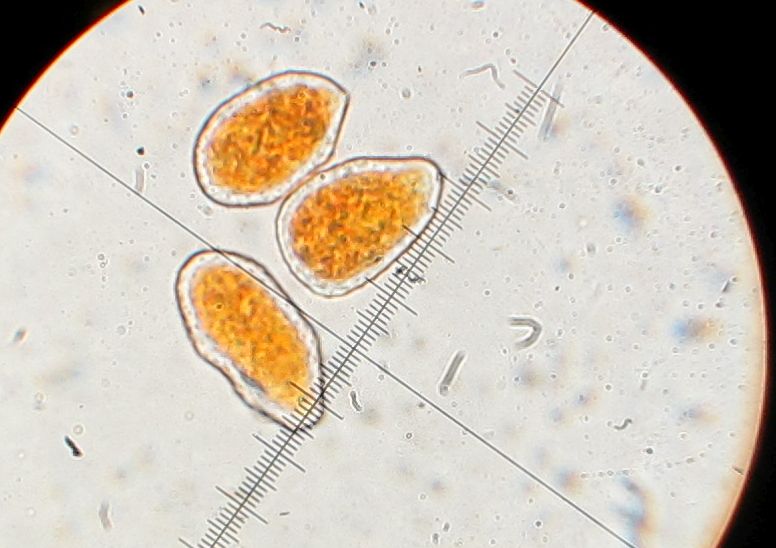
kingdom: Fungi
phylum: Basidiomycota
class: Pucciniomycetes
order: Pucciniales
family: Phragmidiaceae
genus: Phragmidium
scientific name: Phragmidium
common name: flercellerust
